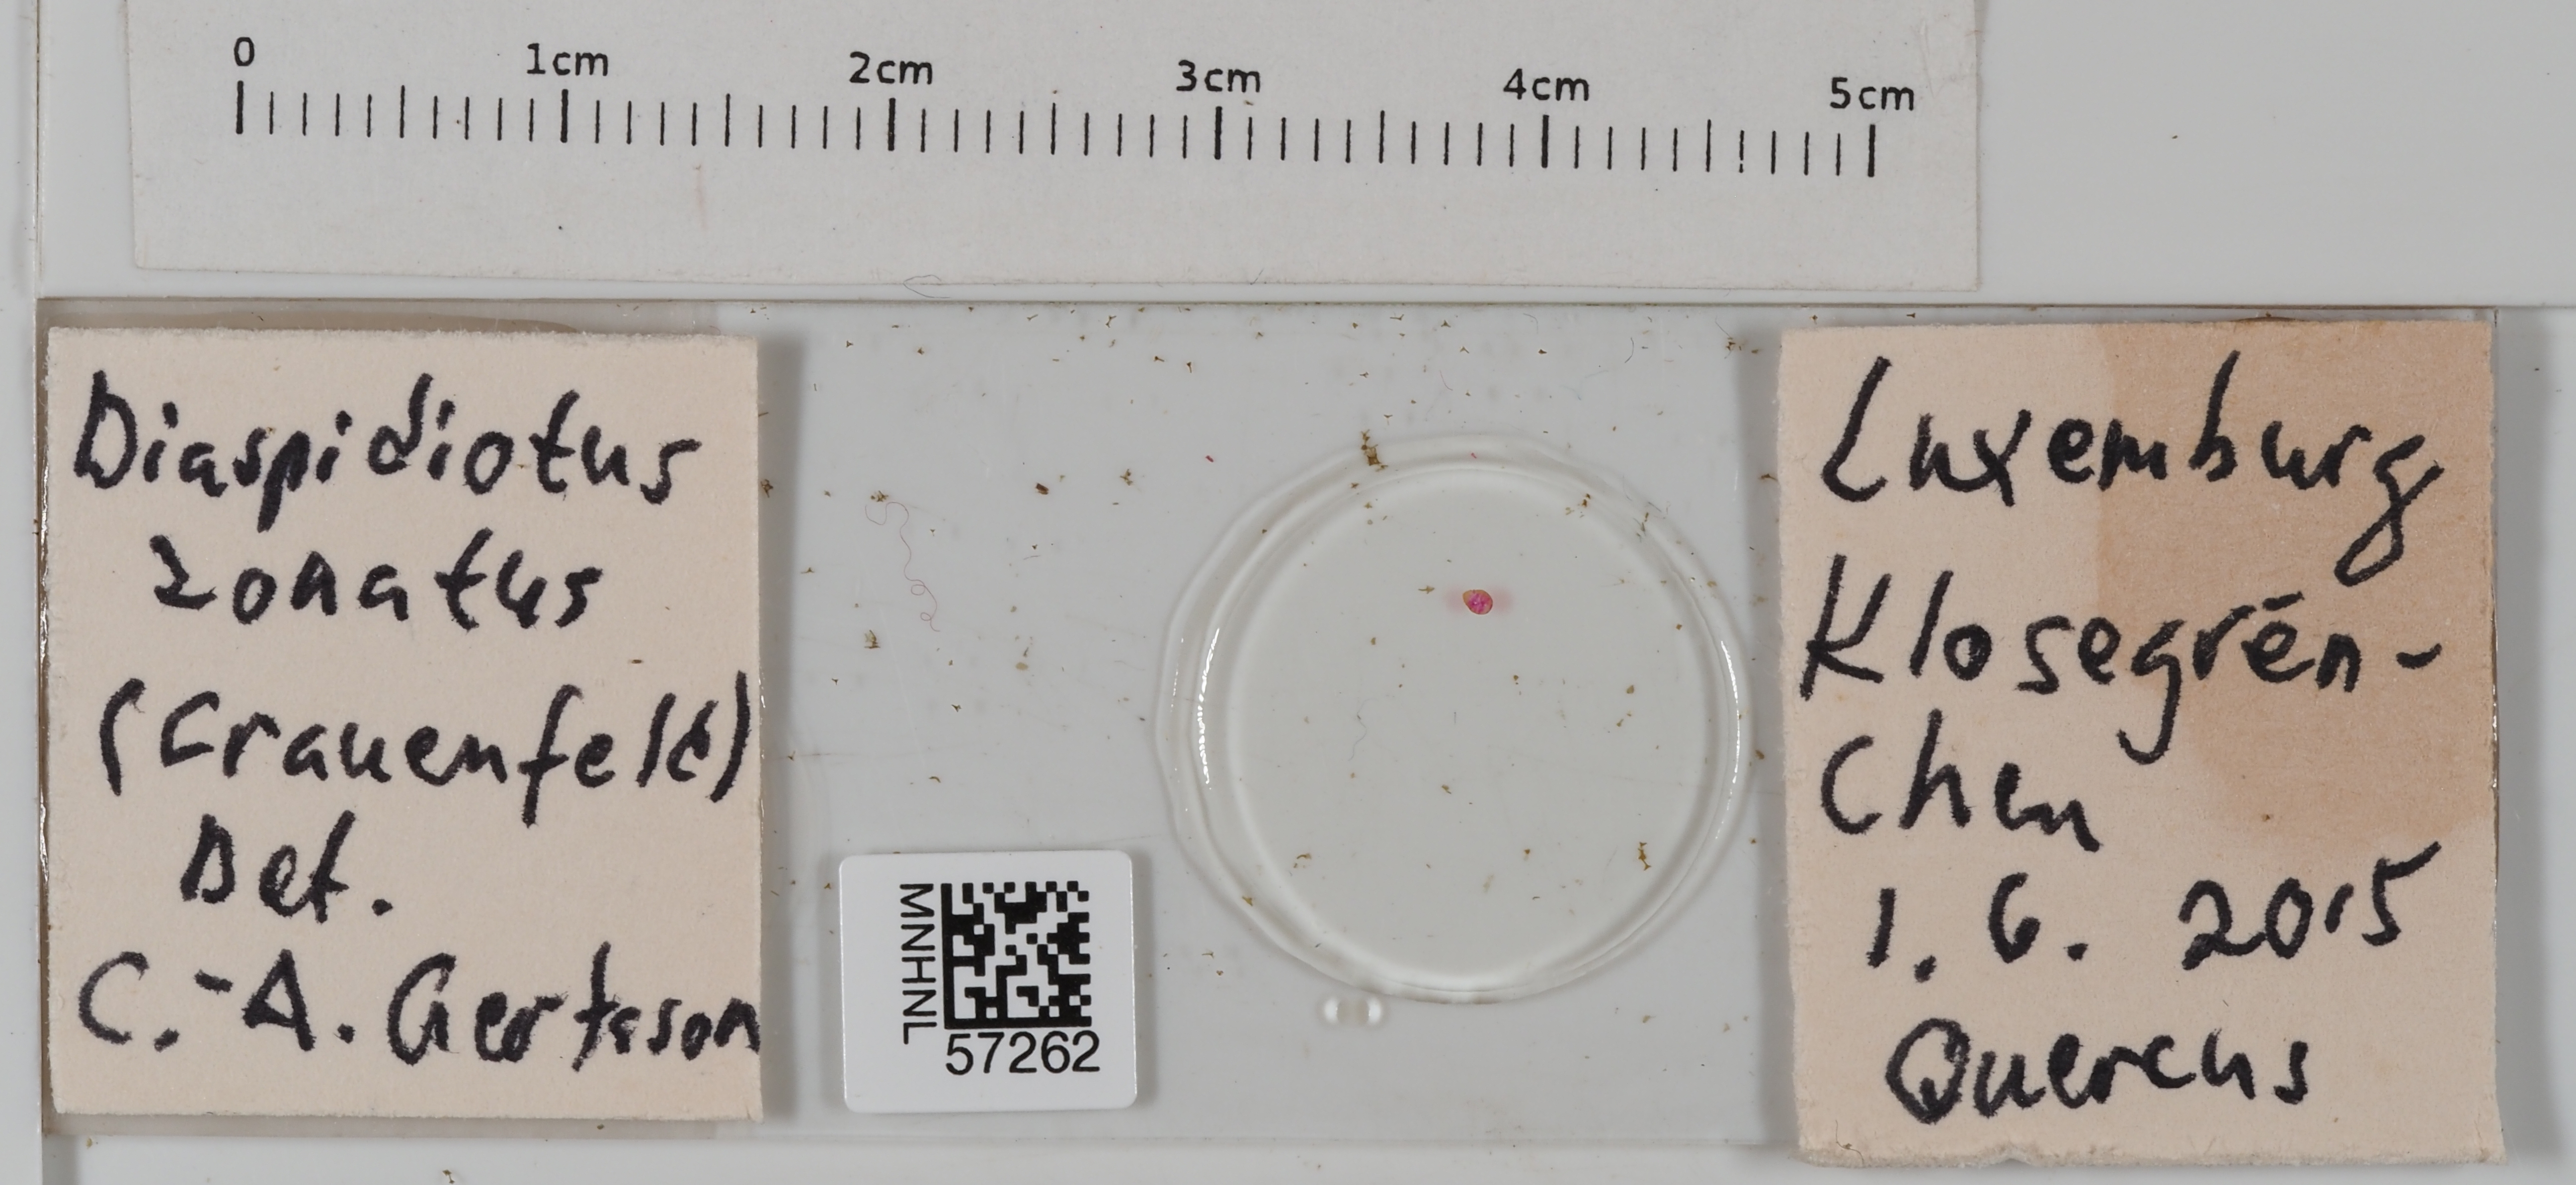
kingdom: Animalia
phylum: Arthropoda
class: Insecta
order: Hemiptera
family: Diaspididae
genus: Diaspidiotus
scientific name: Diaspidiotus zonatus
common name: Zonate armoured scale
